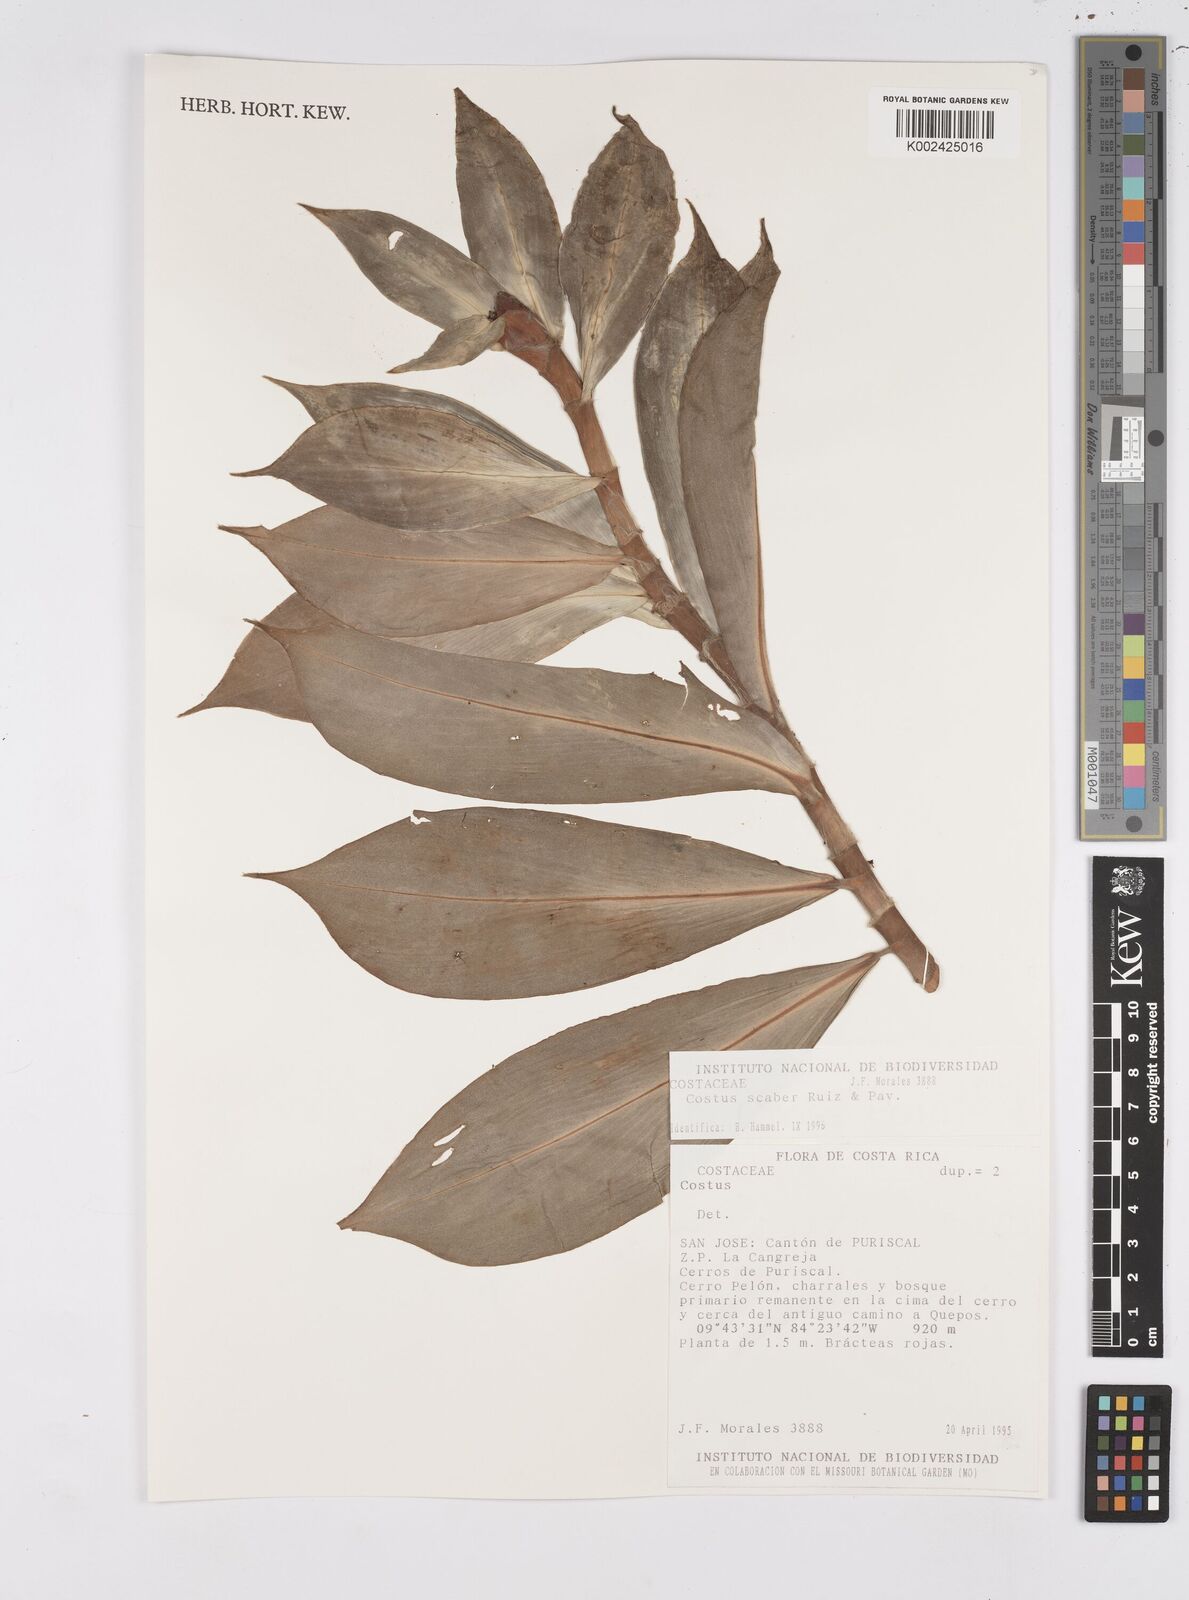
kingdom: Plantae
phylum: Tracheophyta
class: Liliopsida
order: Zingiberales
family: Costaceae
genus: Costus
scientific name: Costus scaber
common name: Spiral head ginger
